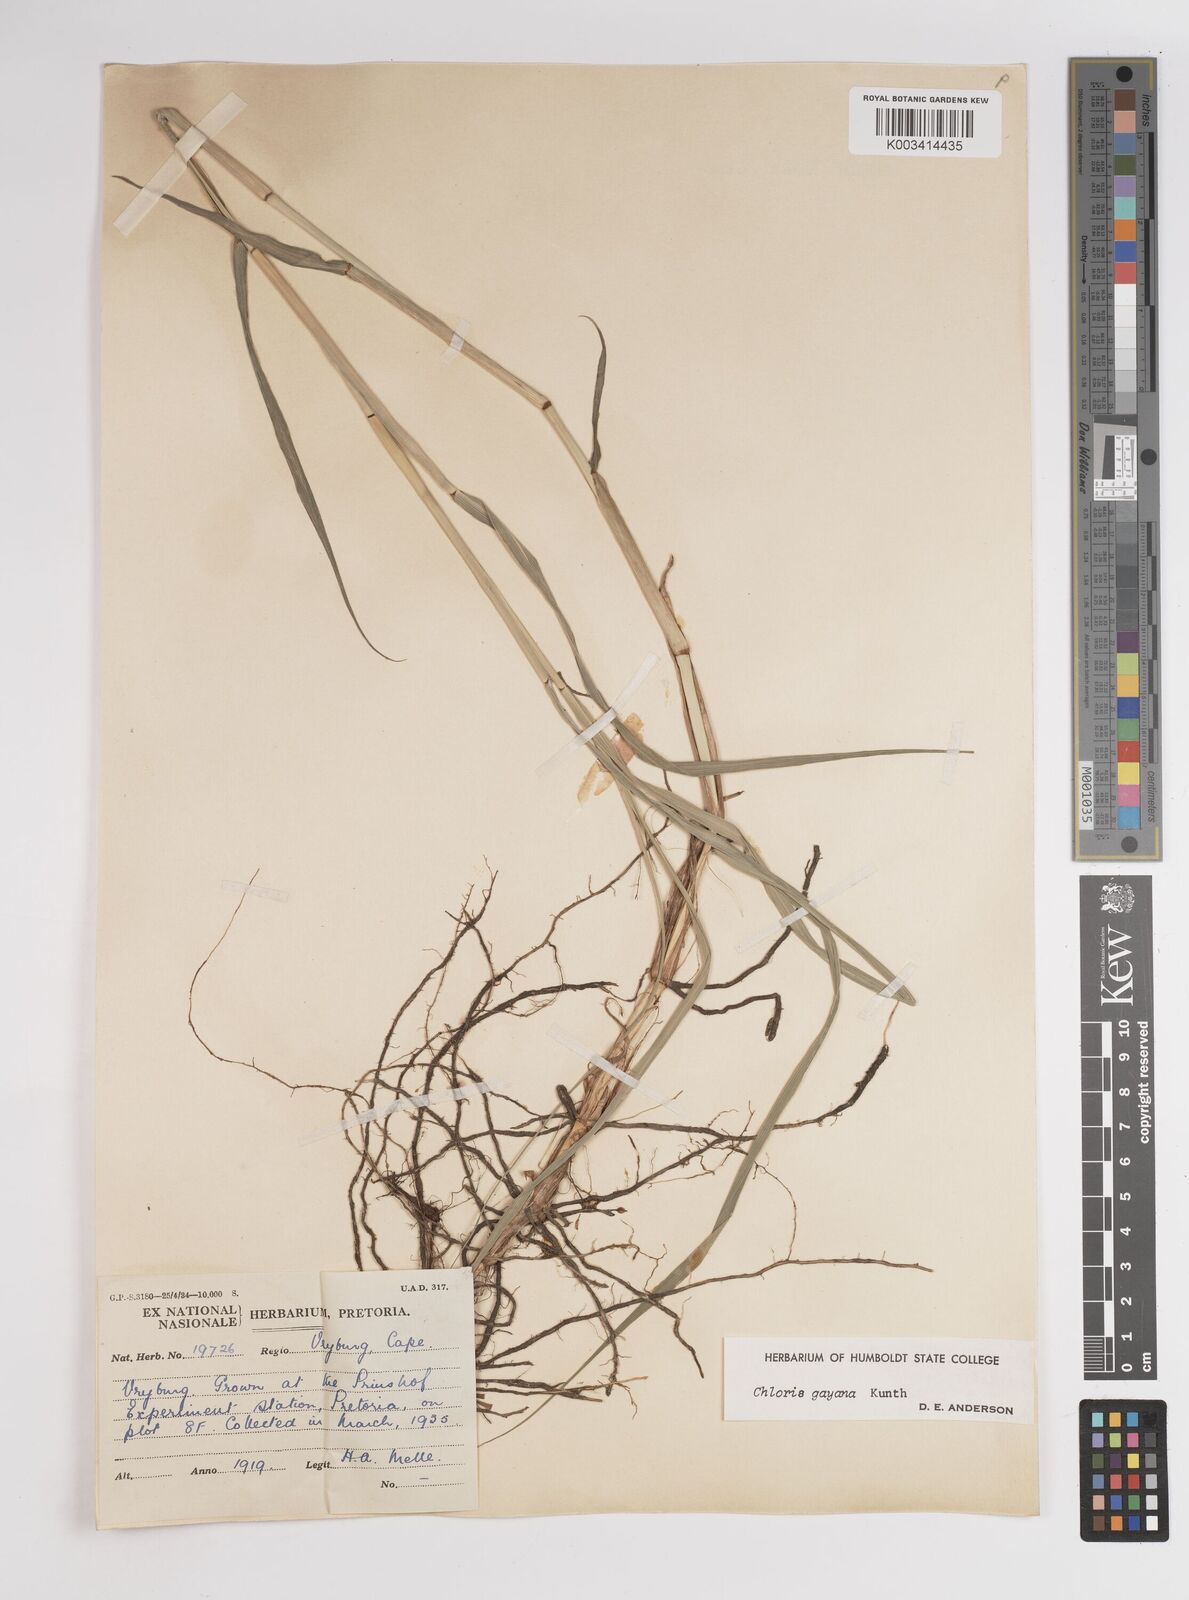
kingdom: Plantae
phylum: Tracheophyta
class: Liliopsida
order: Poales
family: Poaceae
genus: Chloris
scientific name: Chloris gayana
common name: Rhodes grass
